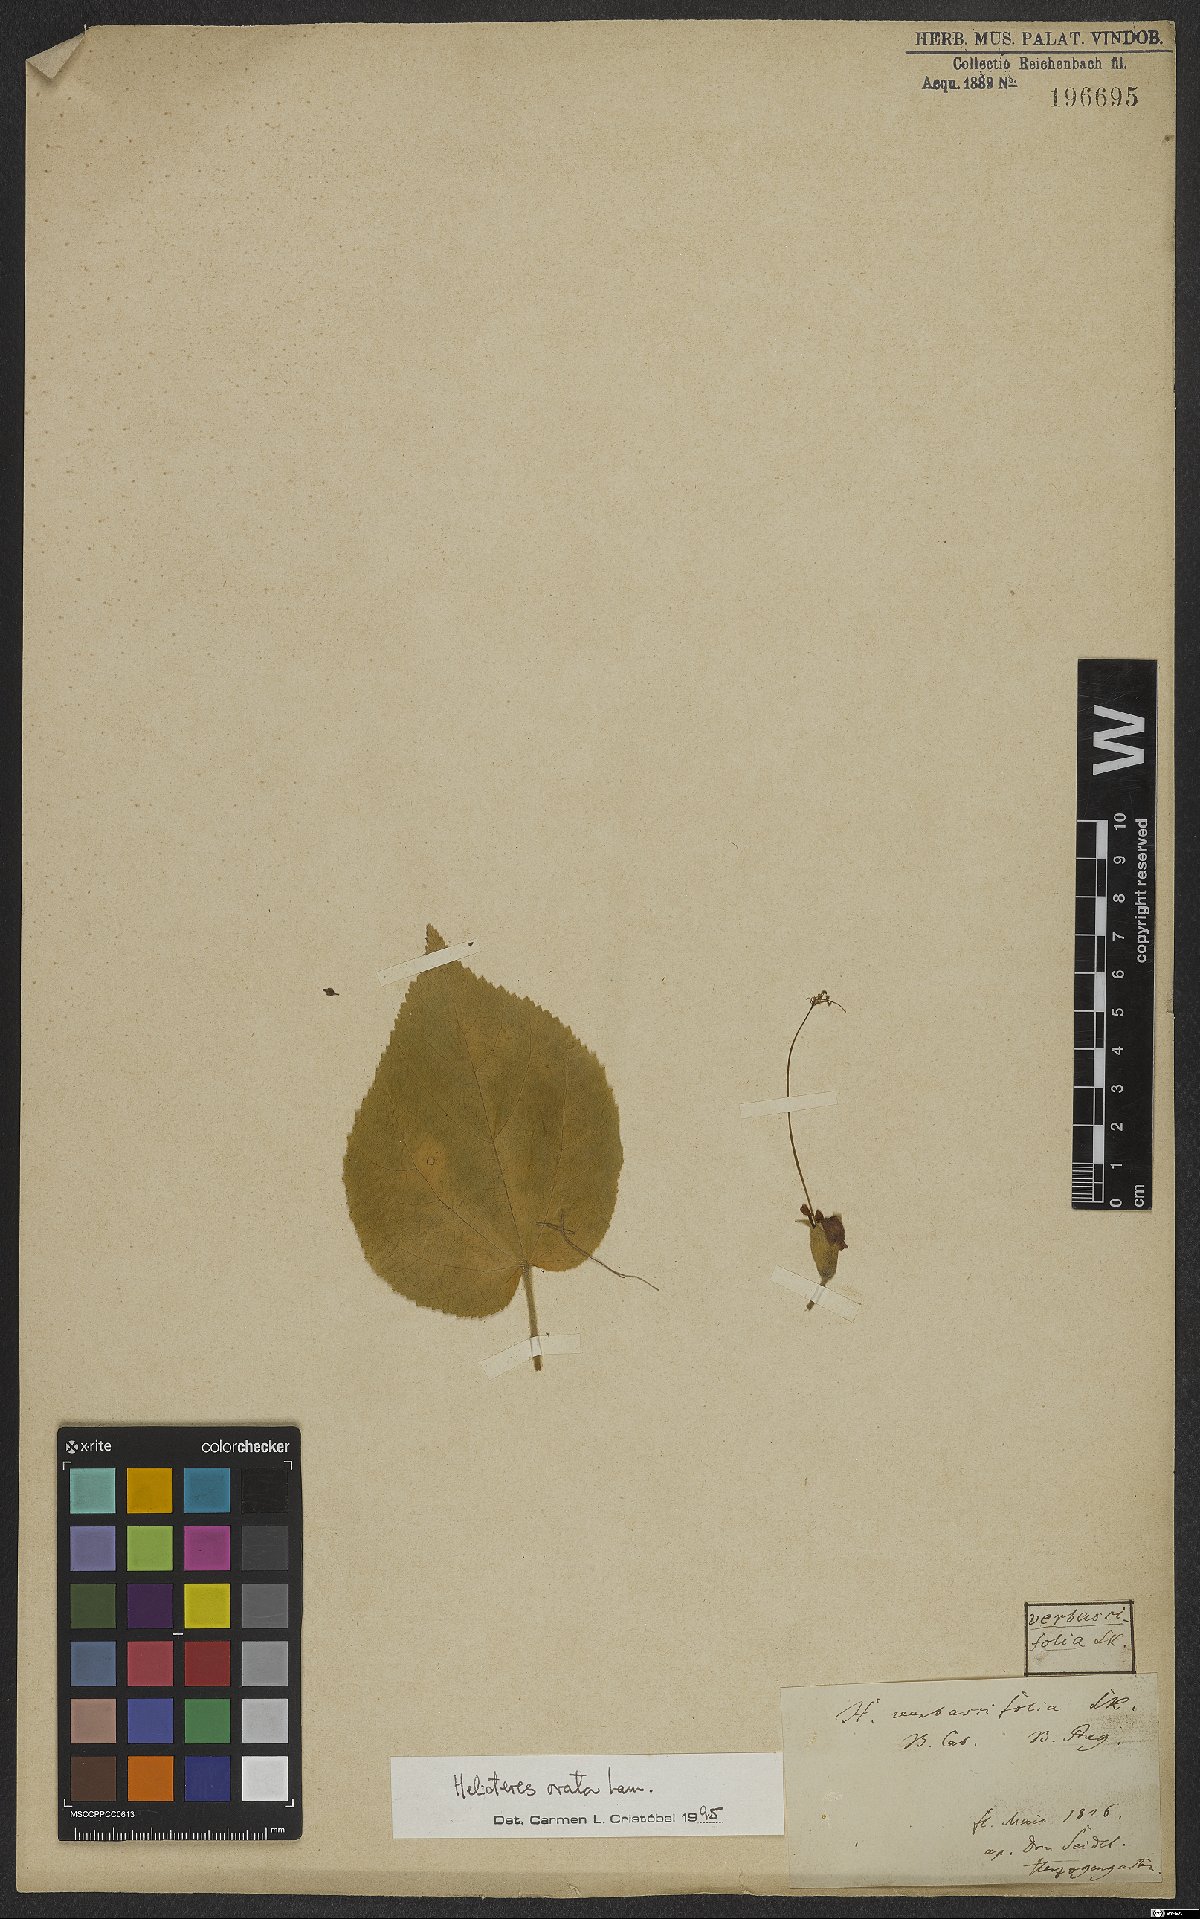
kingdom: Plantae
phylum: Tracheophyta
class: Magnoliopsida
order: Malvales
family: Malvaceae
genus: Helicteres
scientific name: Helicteres ovata
